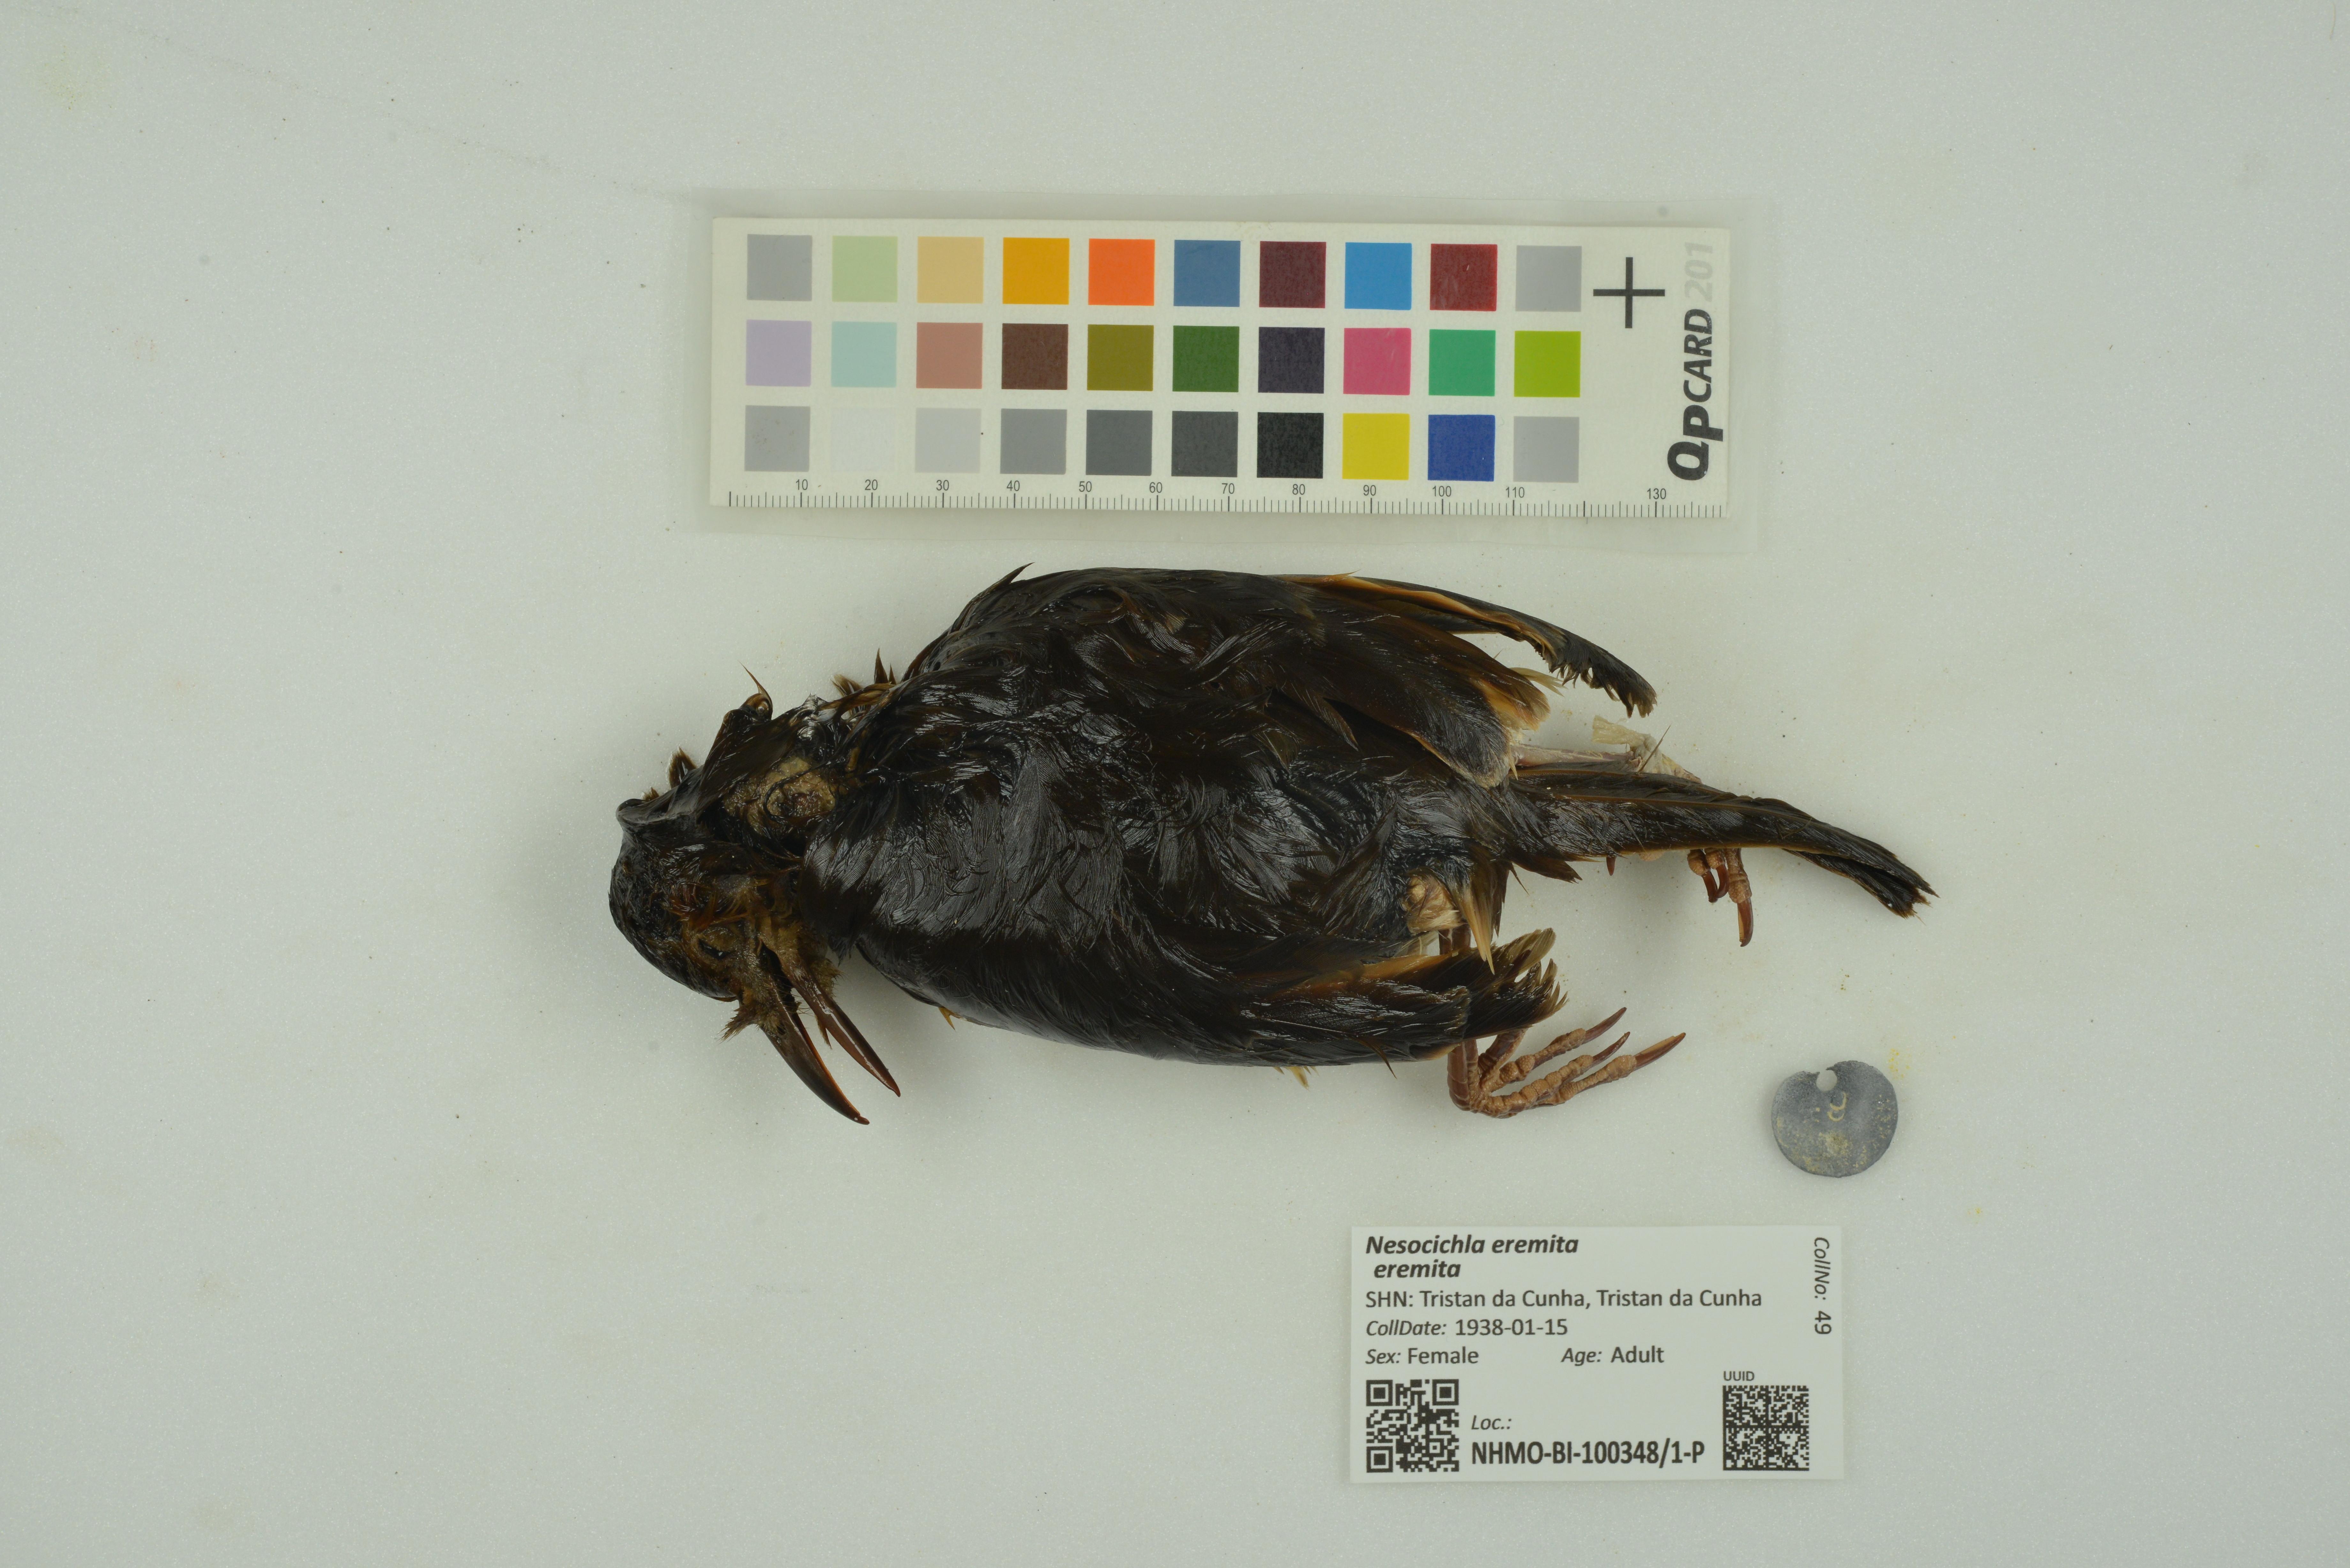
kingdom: Animalia
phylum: Chordata
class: Aves
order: Passeriformes
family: Turdidae
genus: Nesocichla
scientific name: Nesocichla eremita
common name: Tristan thrush
